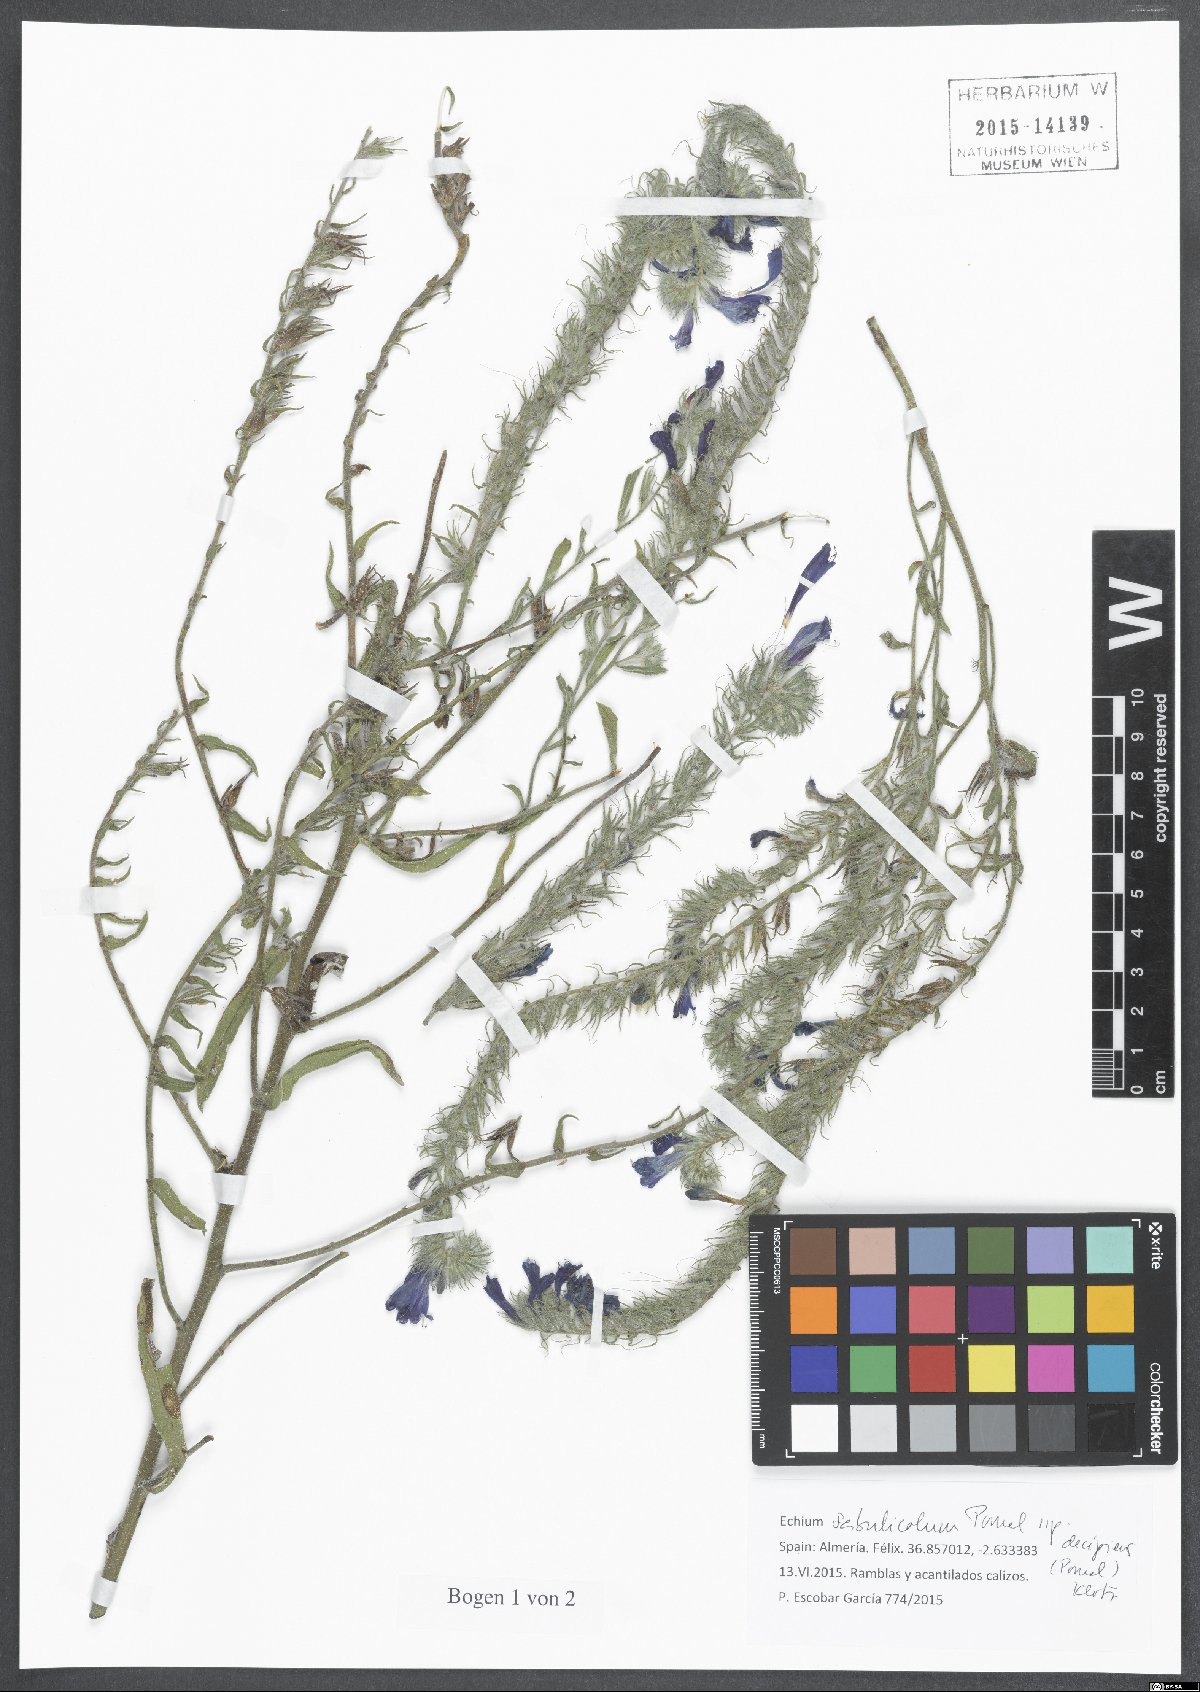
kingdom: Plantae
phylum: Tracheophyta
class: Magnoliopsida
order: Boraginales
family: Boraginaceae
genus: Echium
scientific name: Echium sabulicola
